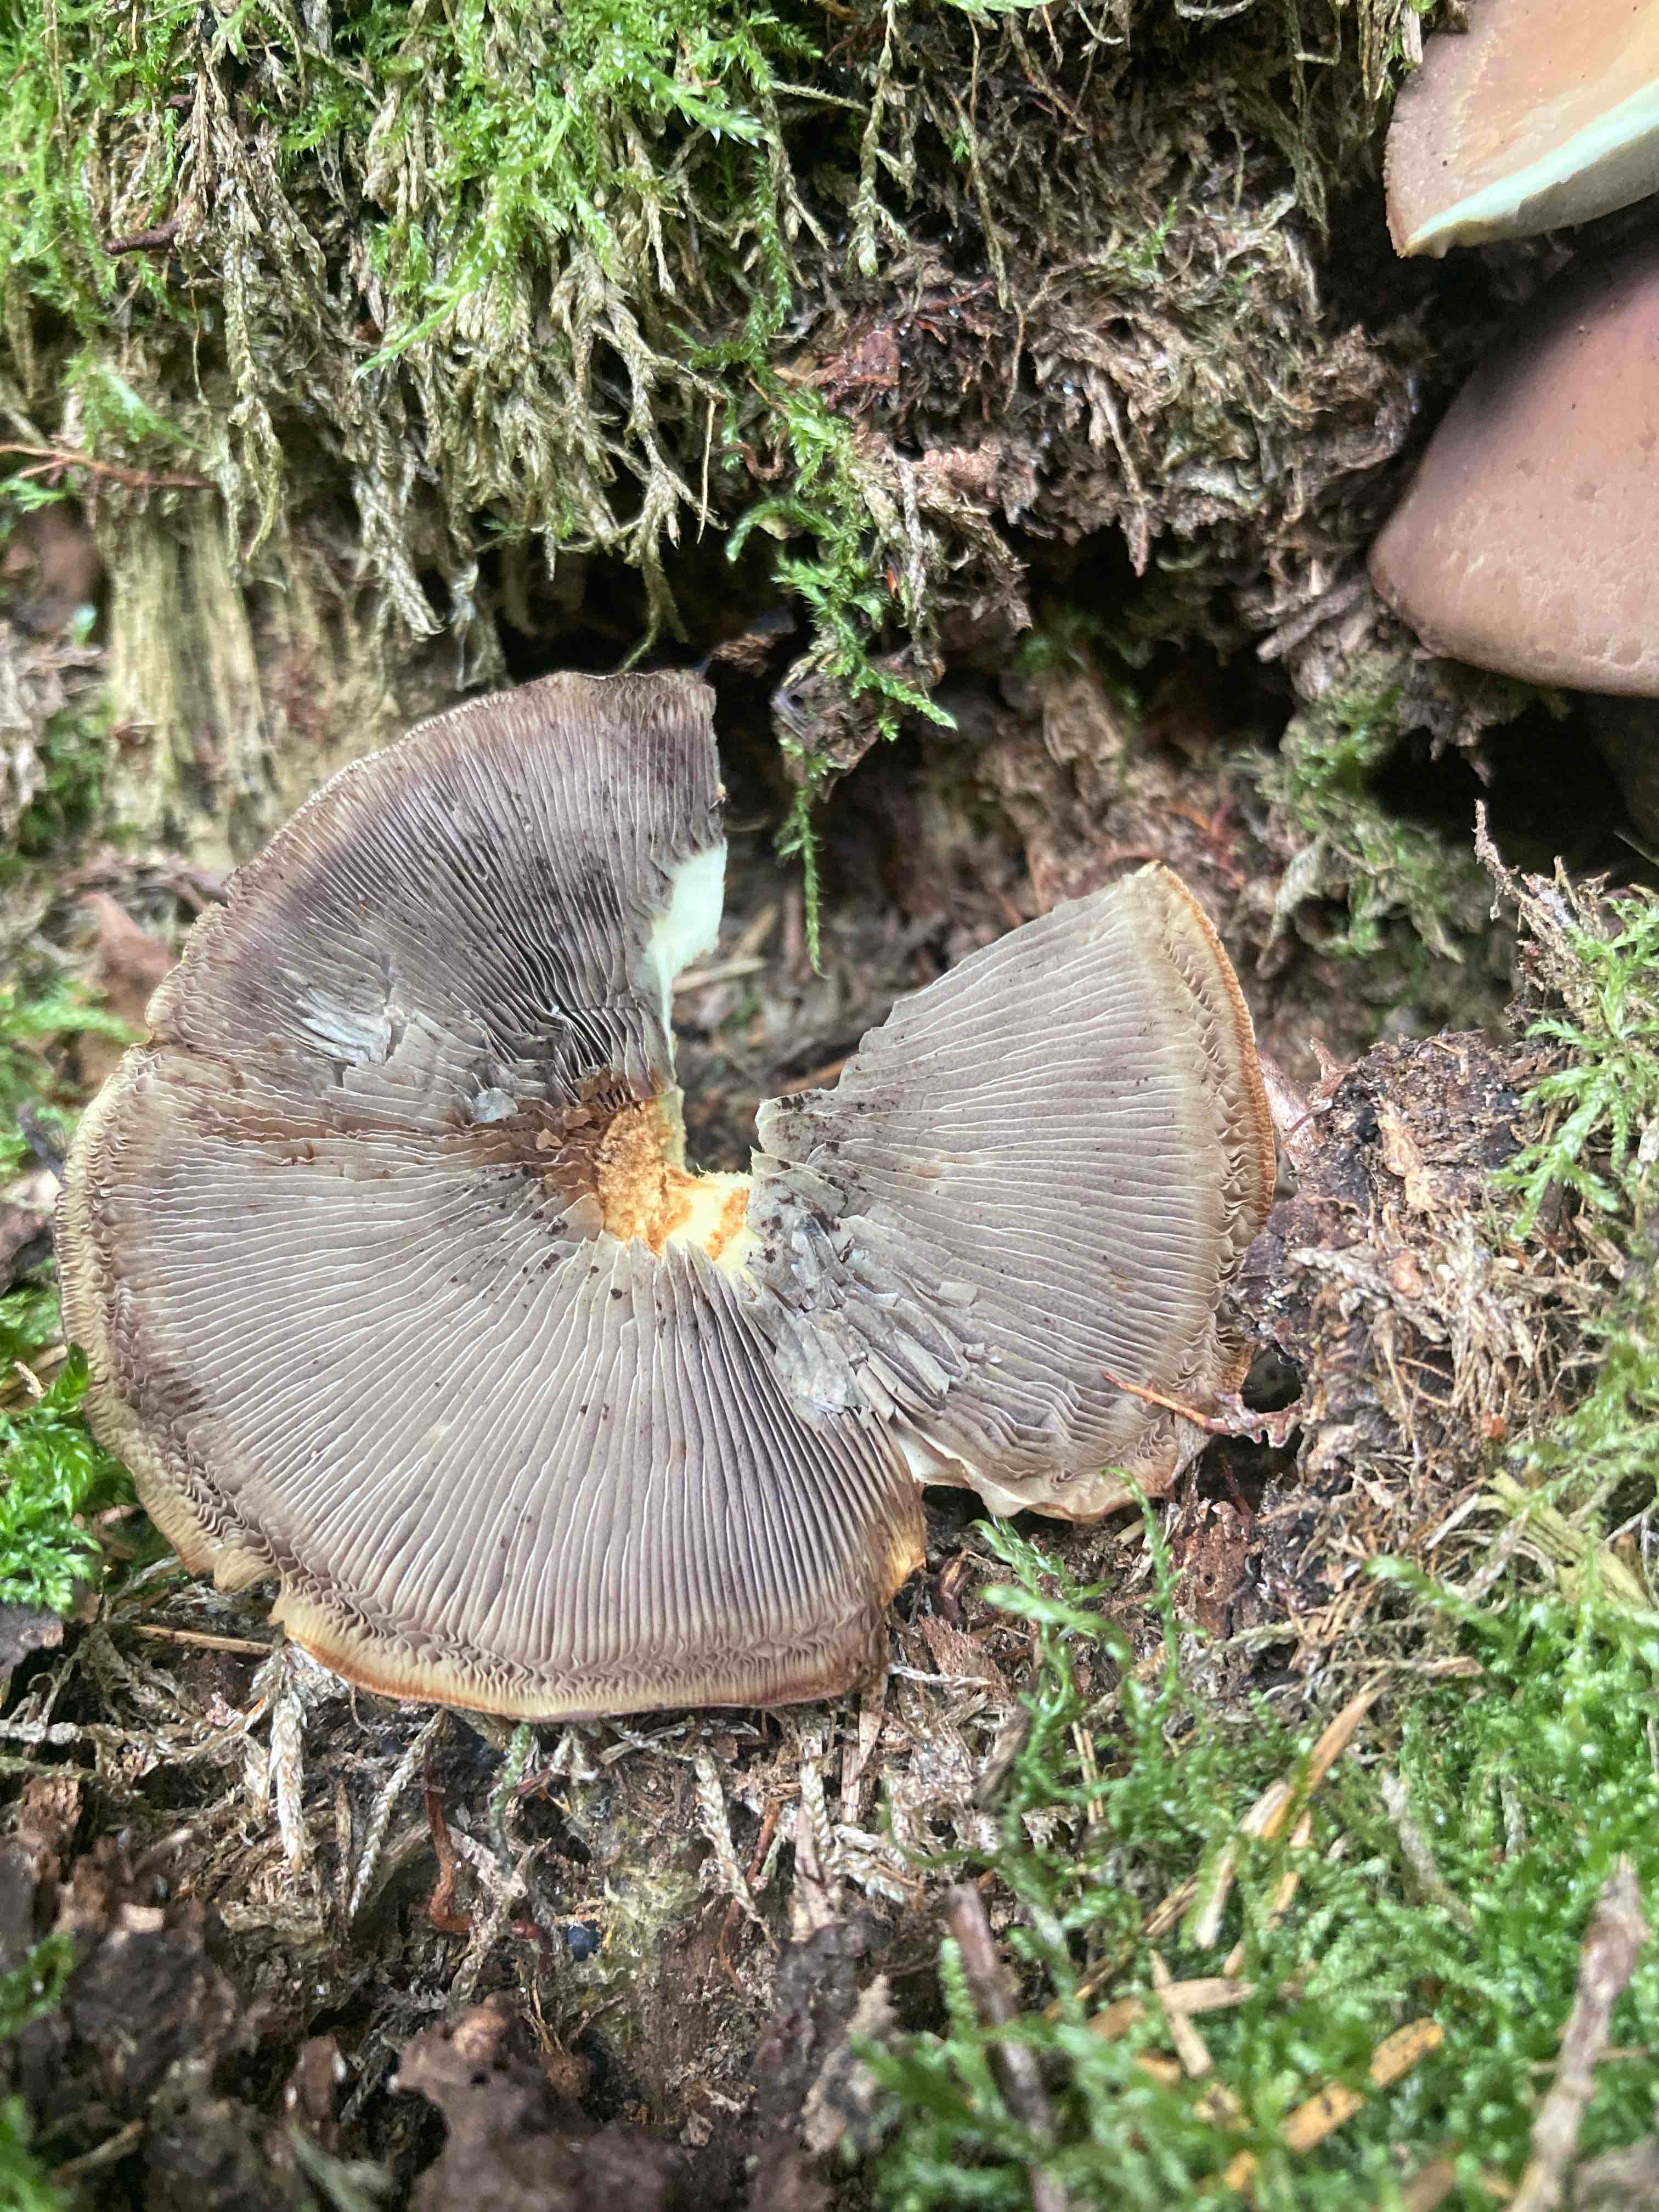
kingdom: Fungi
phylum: Basidiomycota
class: Agaricomycetes
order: Agaricales
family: Strophariaceae
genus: Hypholoma
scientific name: Hypholoma fasciculare
